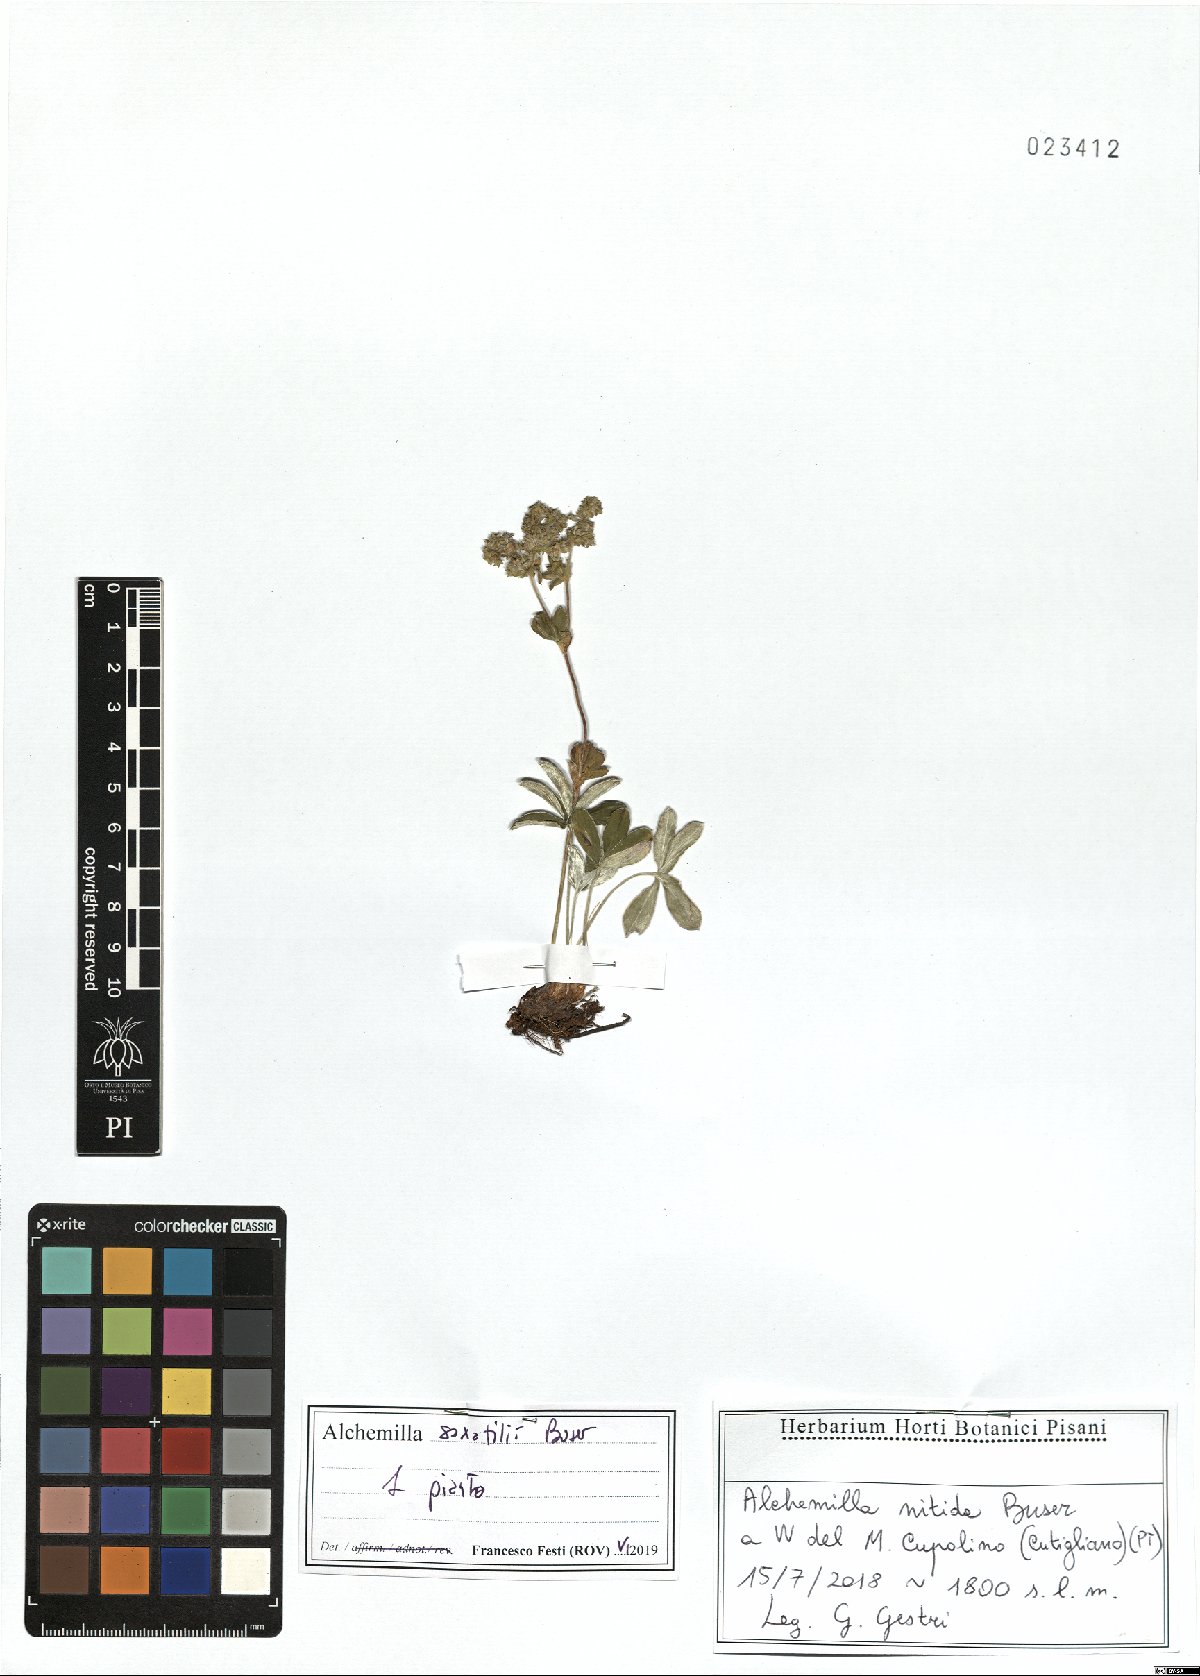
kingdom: Plantae
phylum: Tracheophyta
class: Magnoliopsida
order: Rosales
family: Rosaceae
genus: Alchemilla
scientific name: Alchemilla saxatilis
